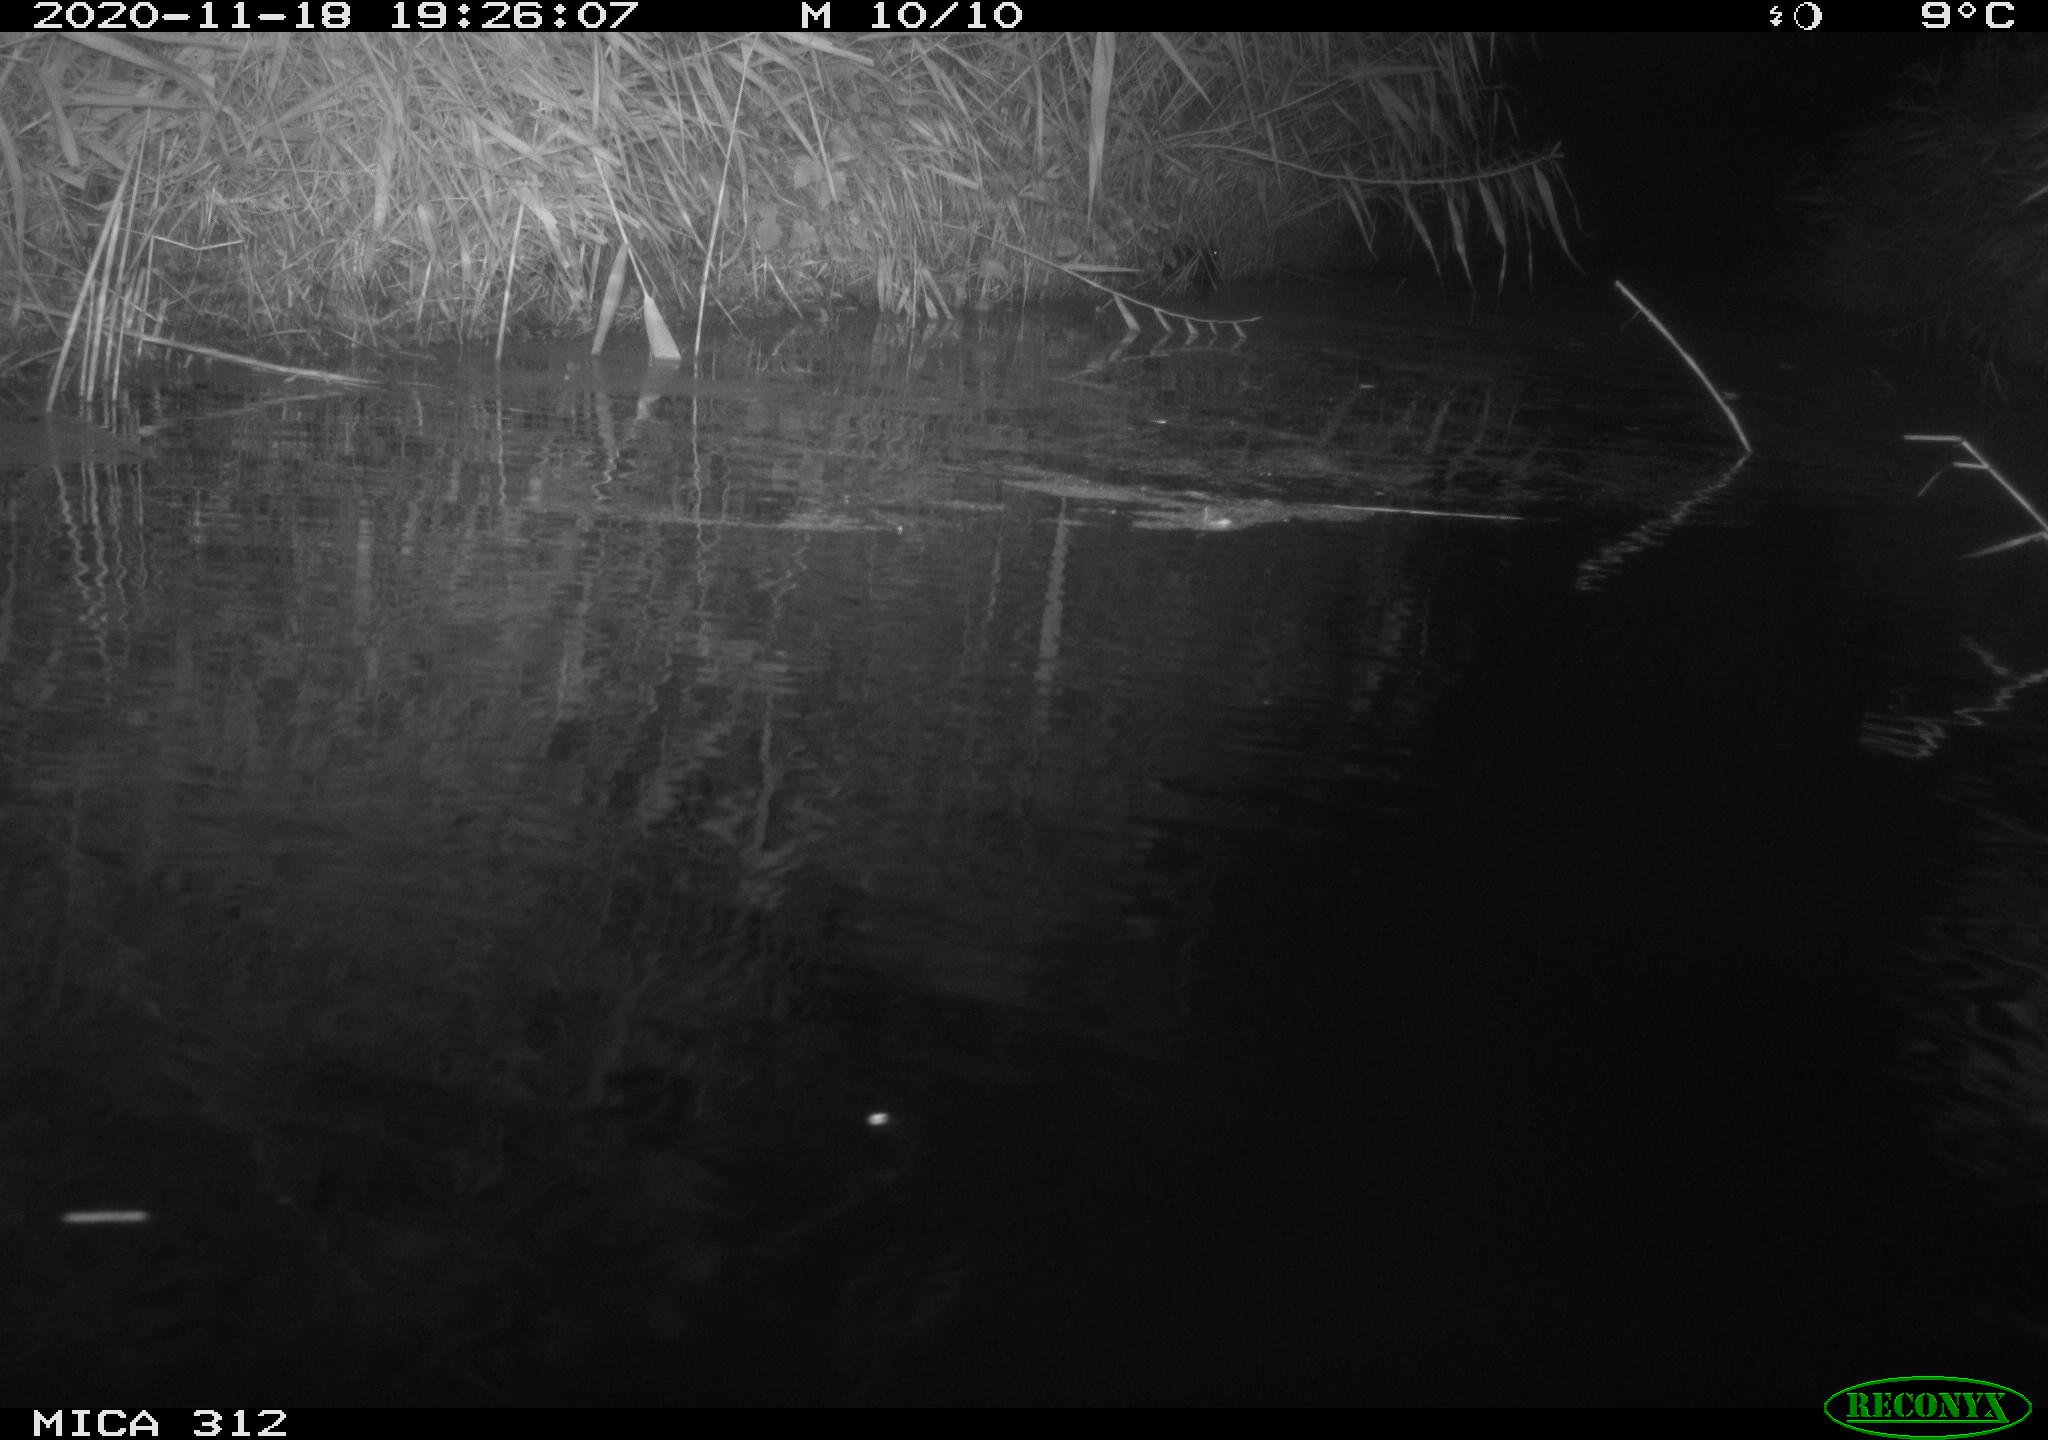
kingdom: Animalia
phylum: Chordata
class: Mammalia
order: Rodentia
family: Muridae
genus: Rattus
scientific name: Rattus norvegicus
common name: Brown rat
